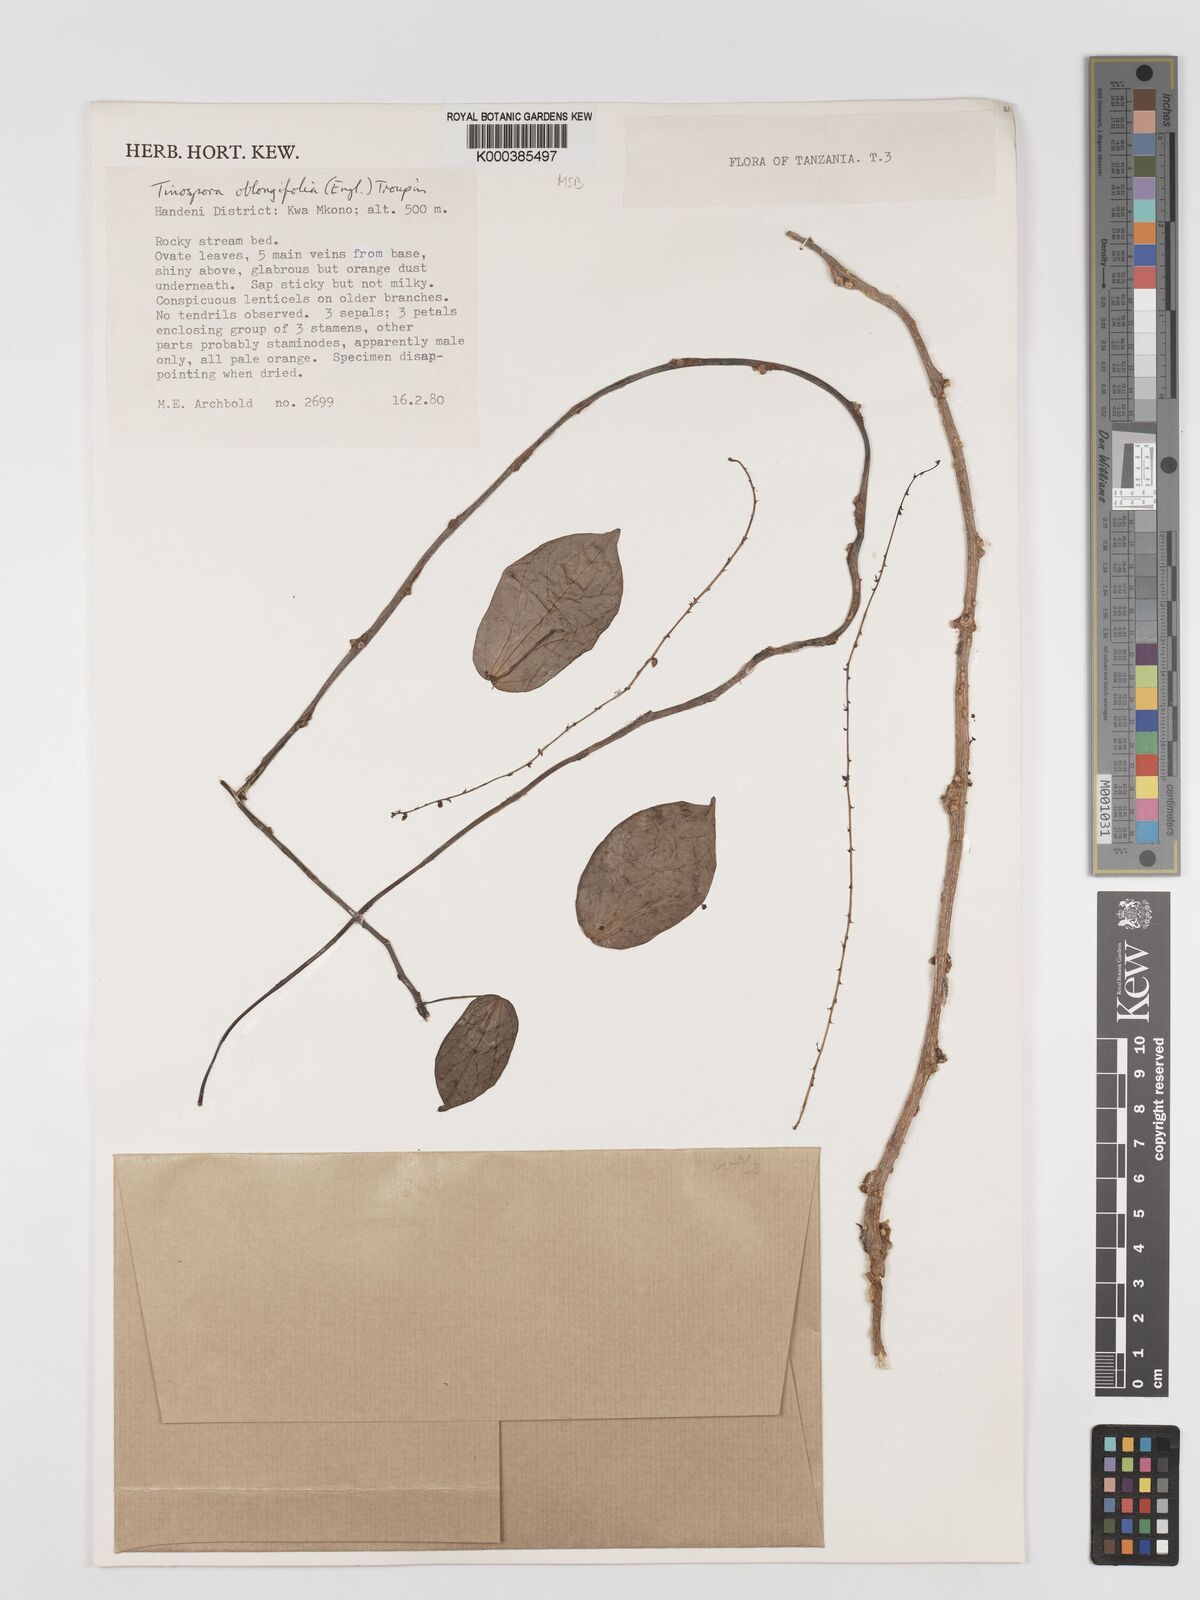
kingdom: Plantae
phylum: Tracheophyta
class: Magnoliopsida
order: Ranunculales
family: Menispermaceae
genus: Tinospora
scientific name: Tinospora oblongifolia
